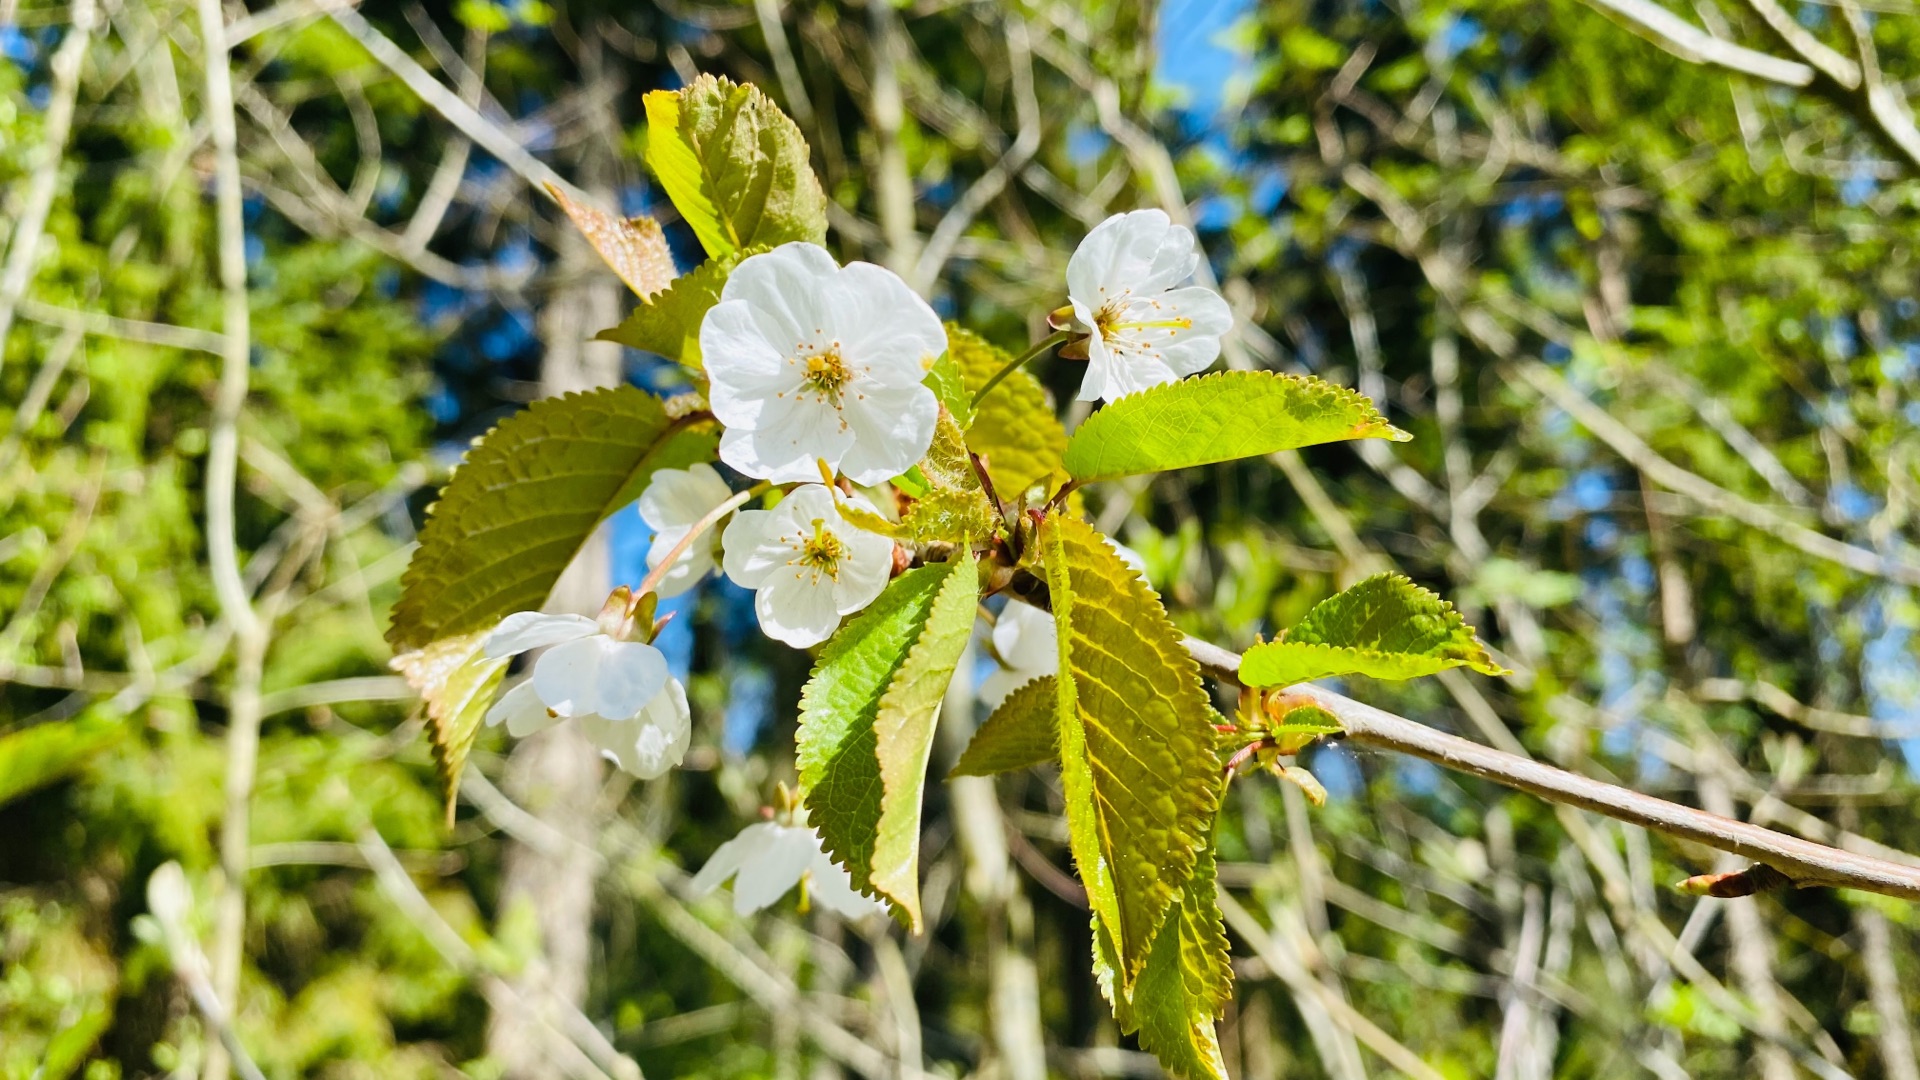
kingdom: Plantae
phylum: Tracheophyta
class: Magnoliopsida
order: Rosales
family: Rosaceae
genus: Prunus
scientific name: Prunus avium
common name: Fugle-kirsebær
